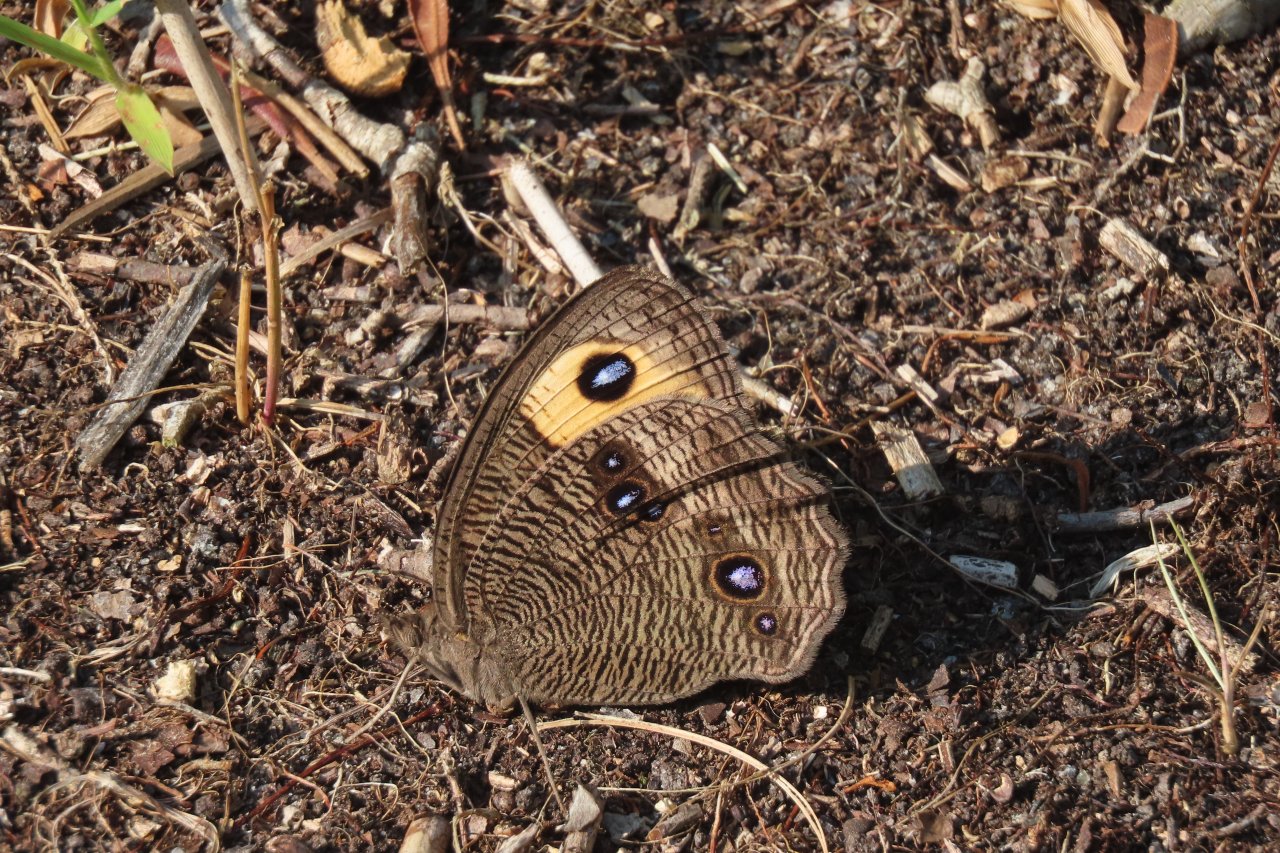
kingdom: Animalia
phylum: Arthropoda
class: Insecta
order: Lepidoptera
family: Nymphalidae
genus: Cercyonis
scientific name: Cercyonis pegala
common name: Common Wood-Nymph
